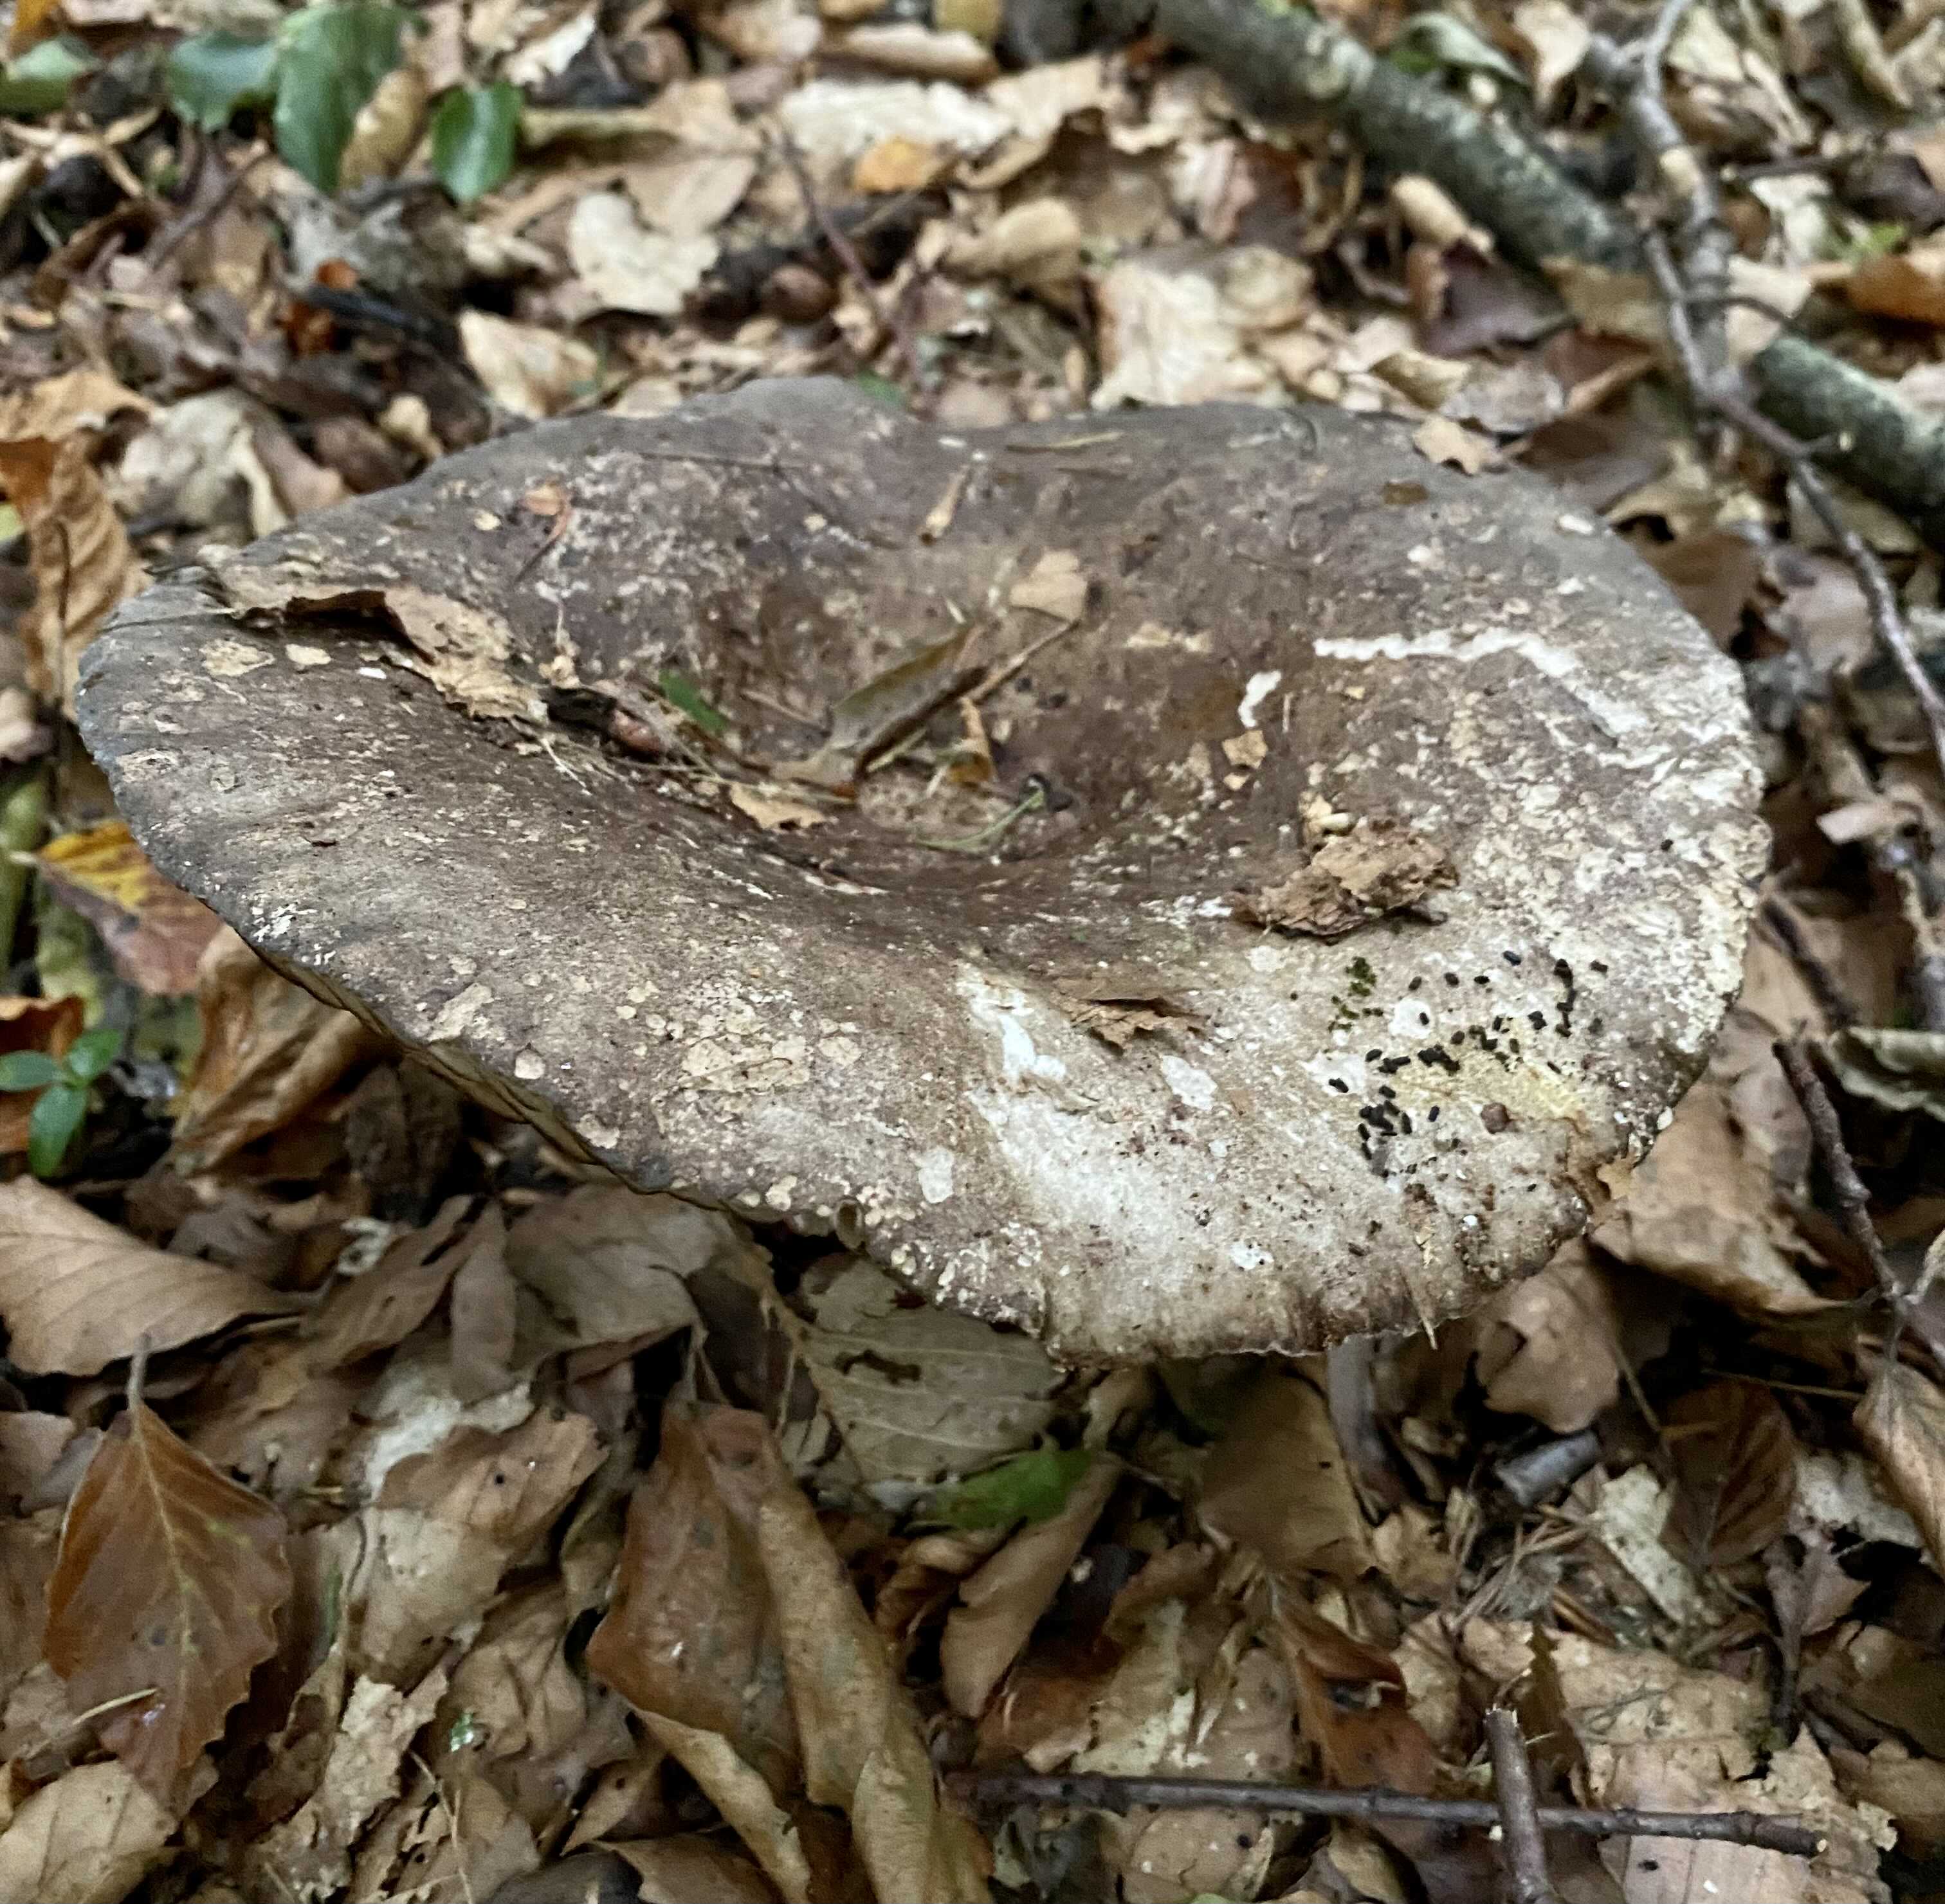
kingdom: Fungi
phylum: Basidiomycota
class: Agaricomycetes
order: Russulales
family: Russulaceae
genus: Russula
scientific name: Russula adusta
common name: sværtende skørhat
